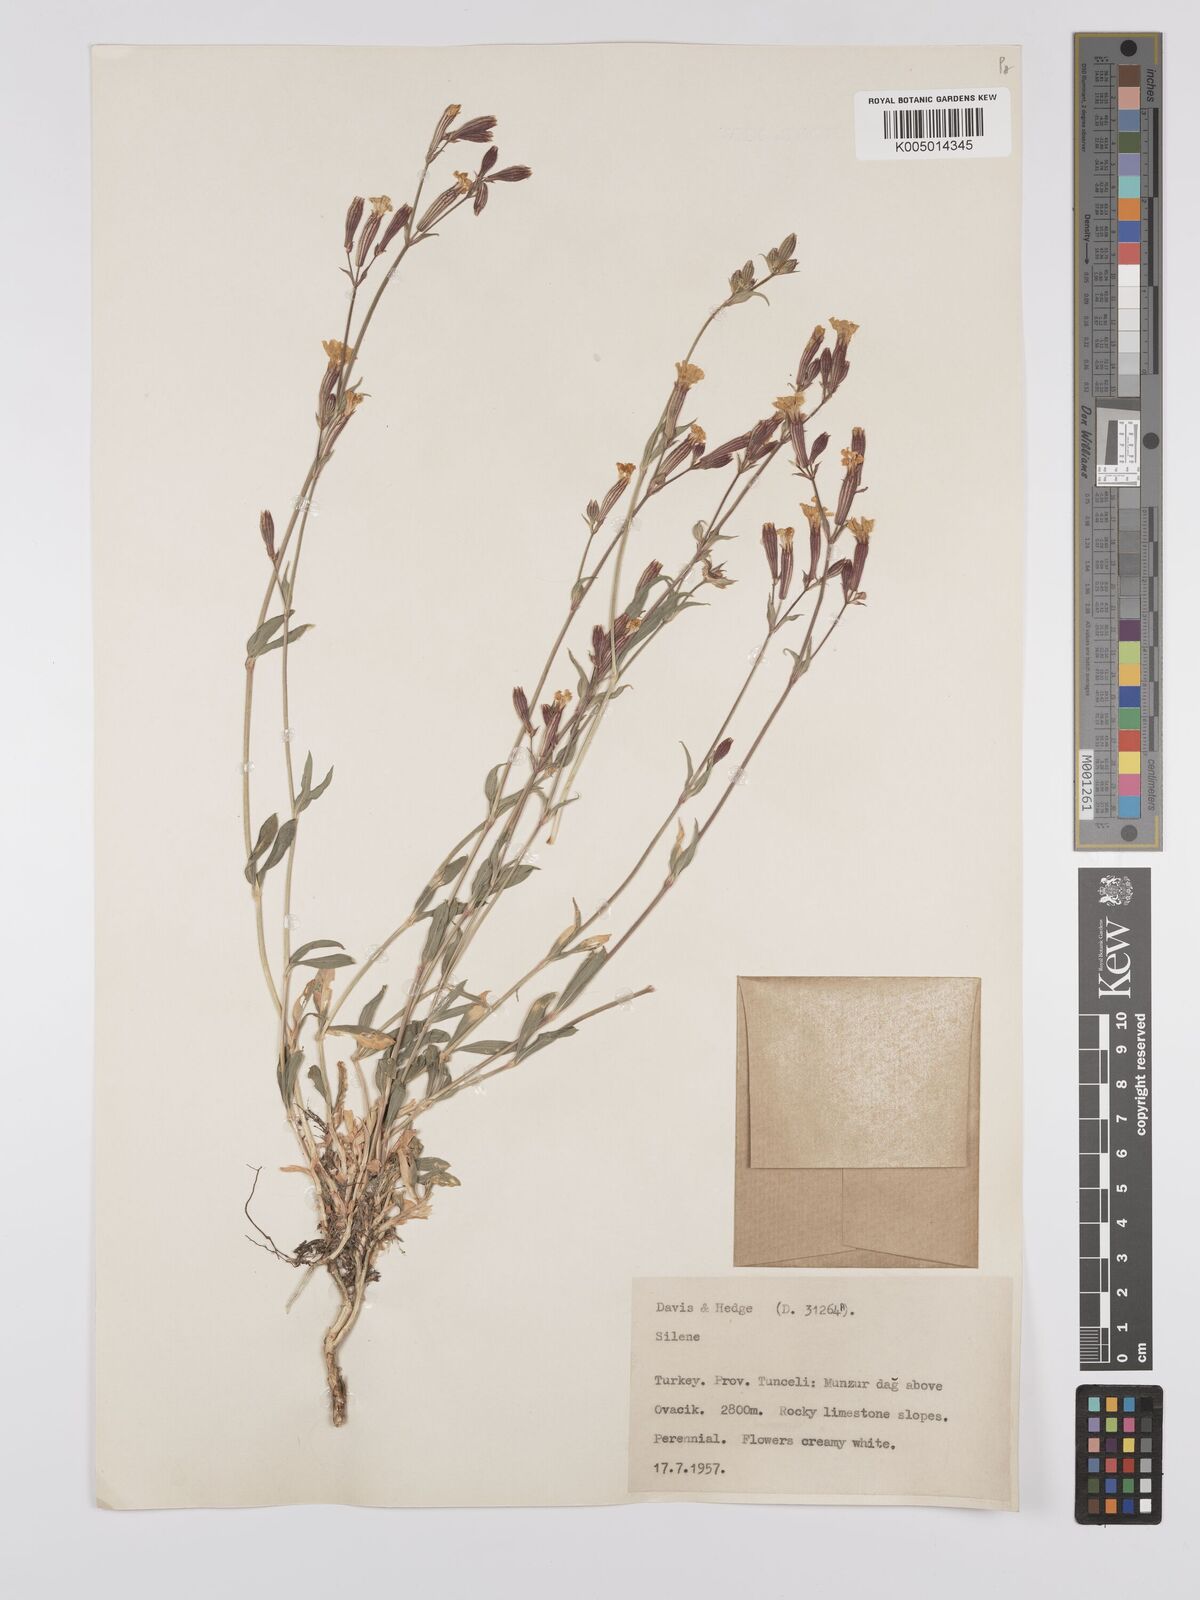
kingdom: Plantae
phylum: Tracheophyta
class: Magnoliopsida
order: Caryophyllales
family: Caryophyllaceae
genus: Silene
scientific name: Silene
